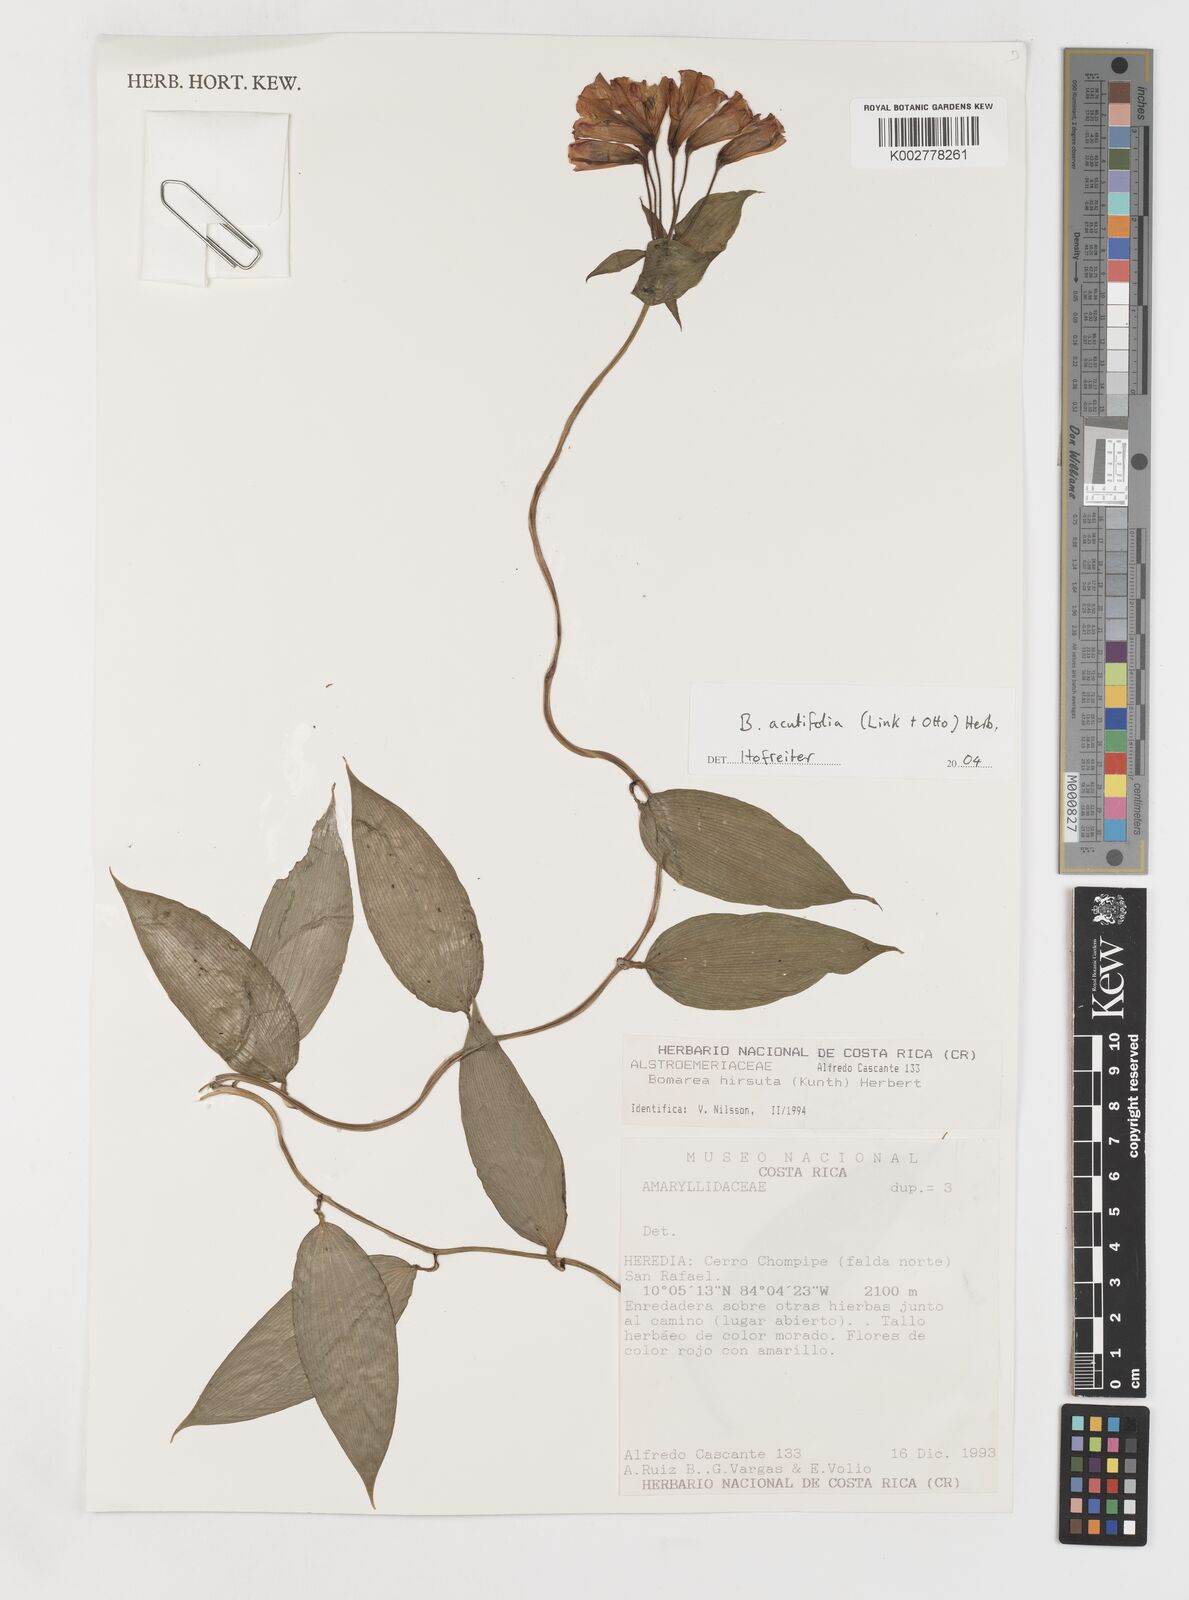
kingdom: Plantae
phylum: Tracheophyta
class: Liliopsida
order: Liliales
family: Alstroemeriaceae
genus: Bomarea
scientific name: Bomarea acutifolia
